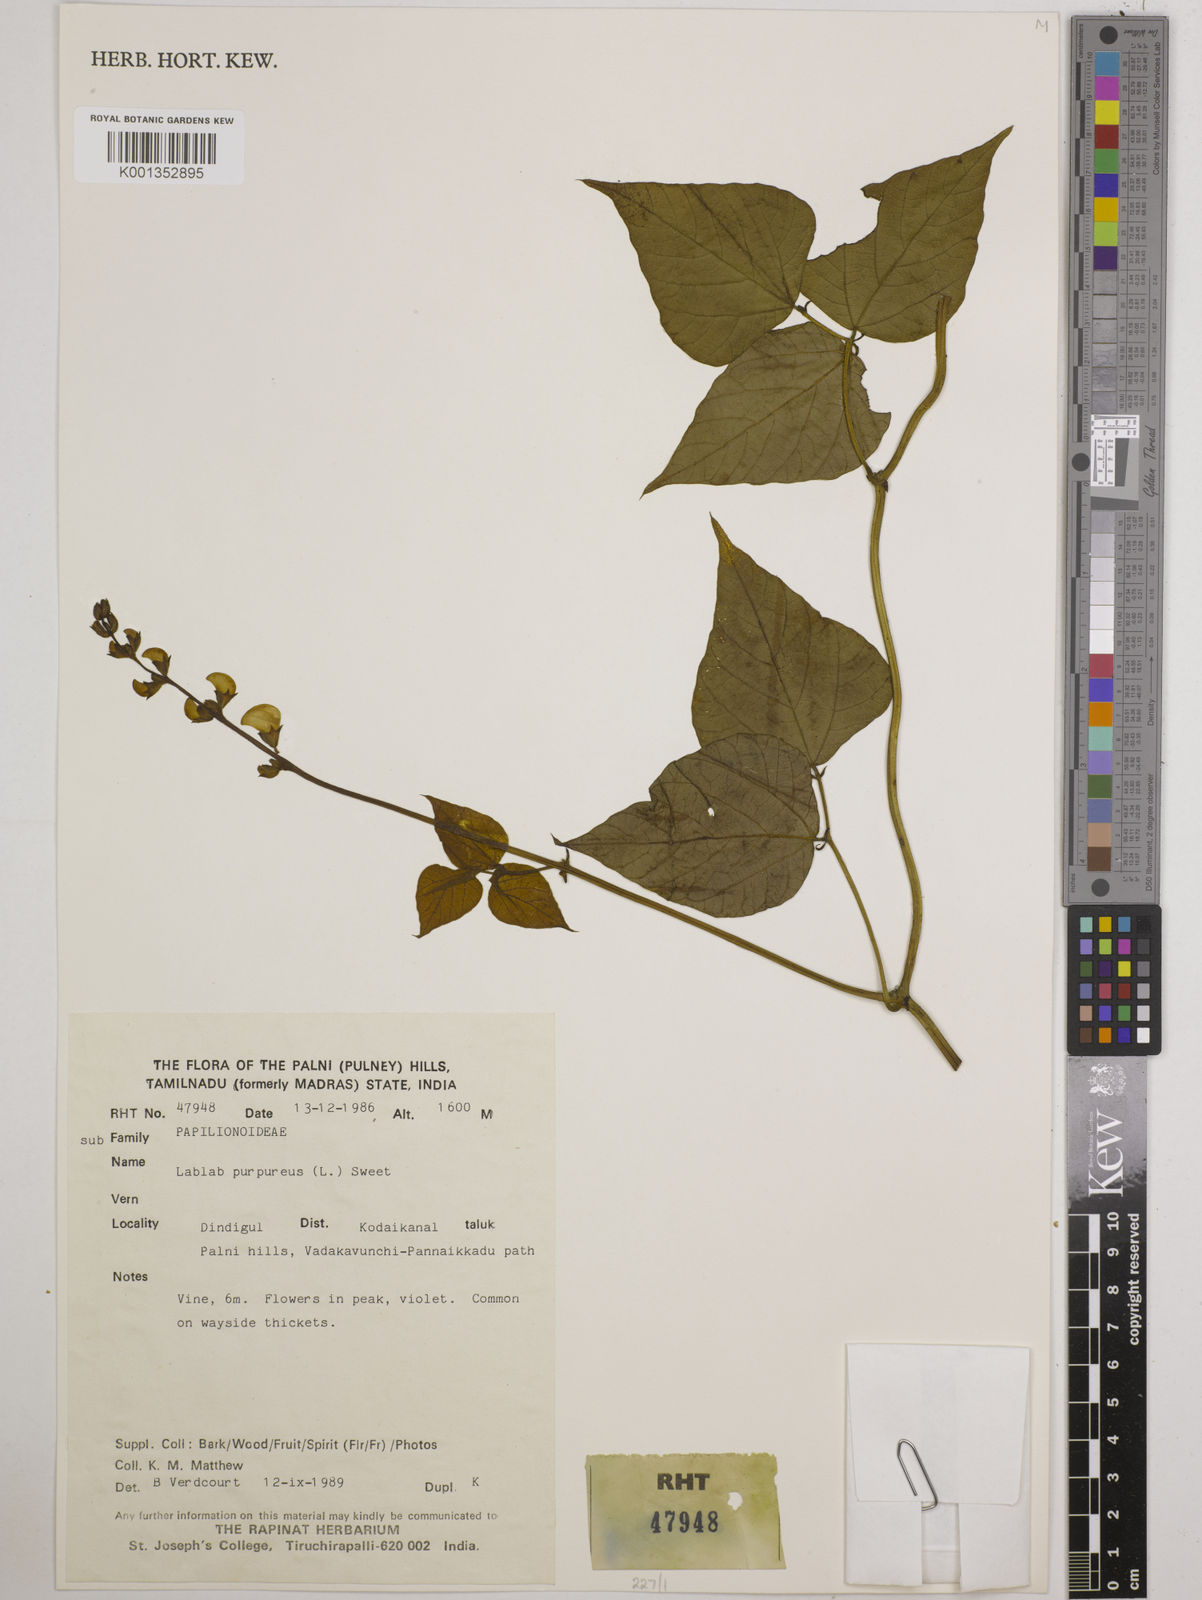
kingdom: Plantae
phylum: Tracheophyta
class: Magnoliopsida
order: Fabales
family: Fabaceae
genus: Lablab
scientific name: Lablab purpureus
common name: Lablab-bean
